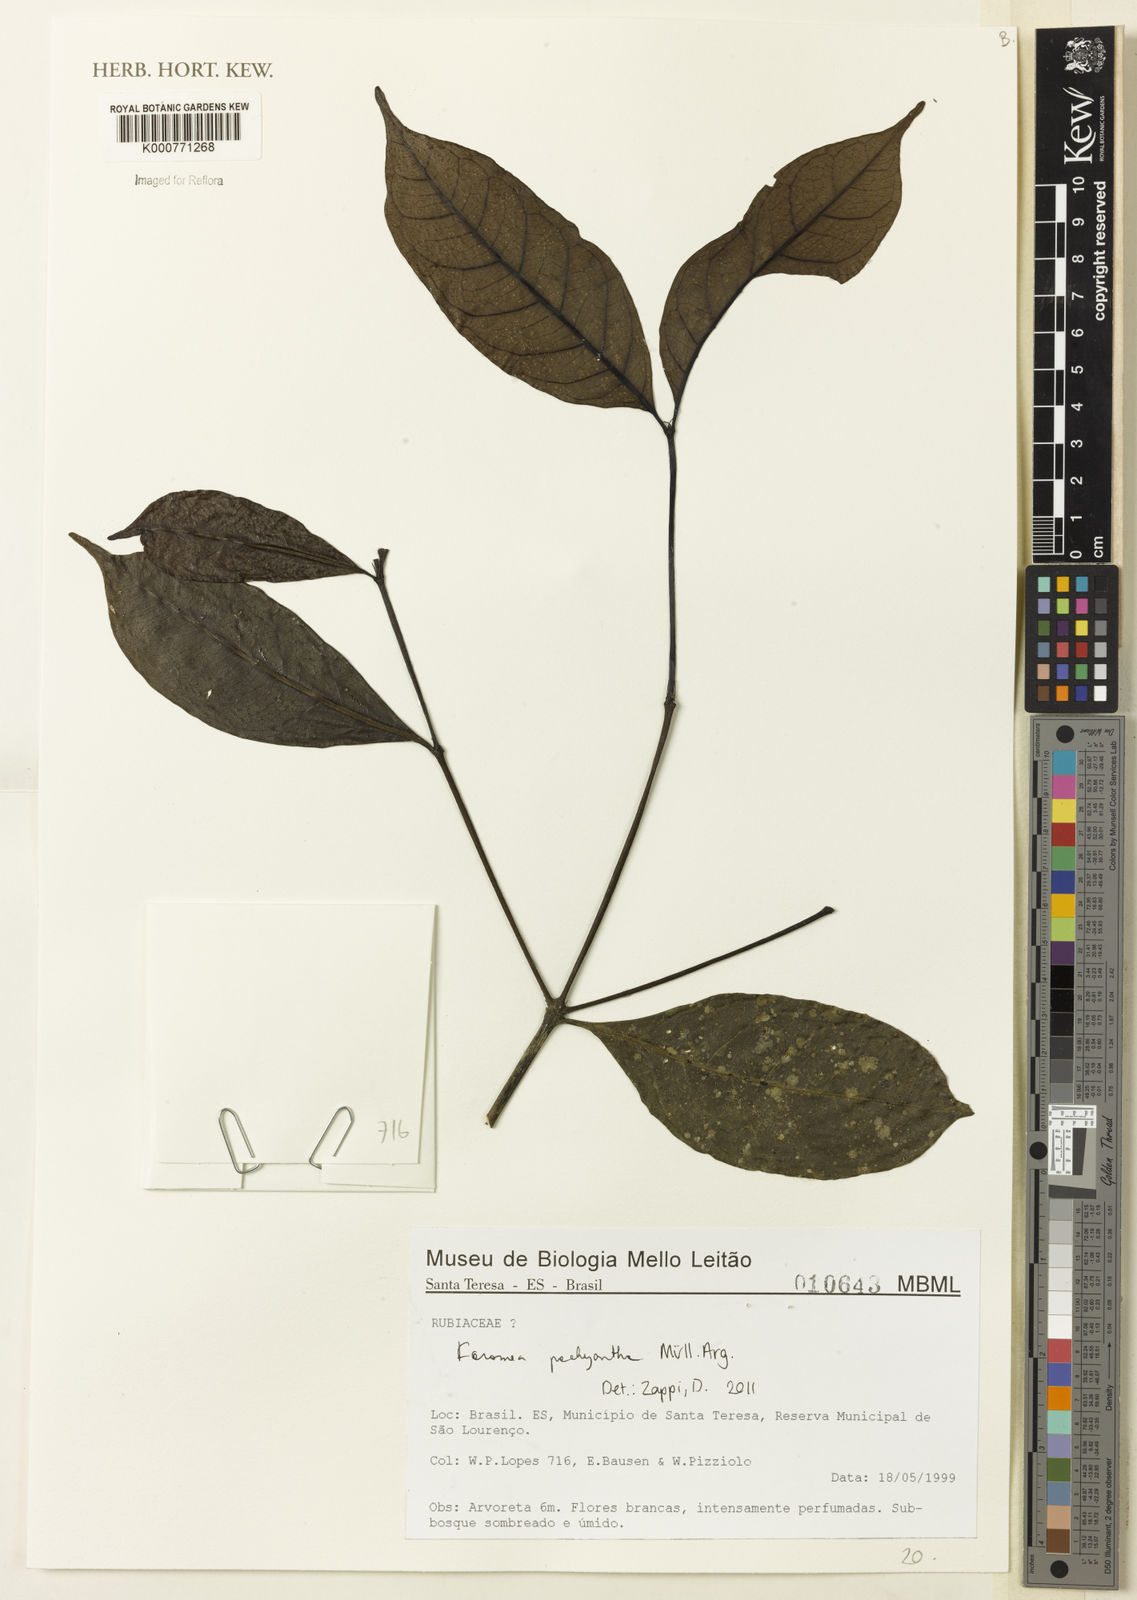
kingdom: Plantae
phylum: Tracheophyta
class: Magnoliopsida
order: Gentianales
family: Rubiaceae
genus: Rudgea
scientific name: Rudgea
